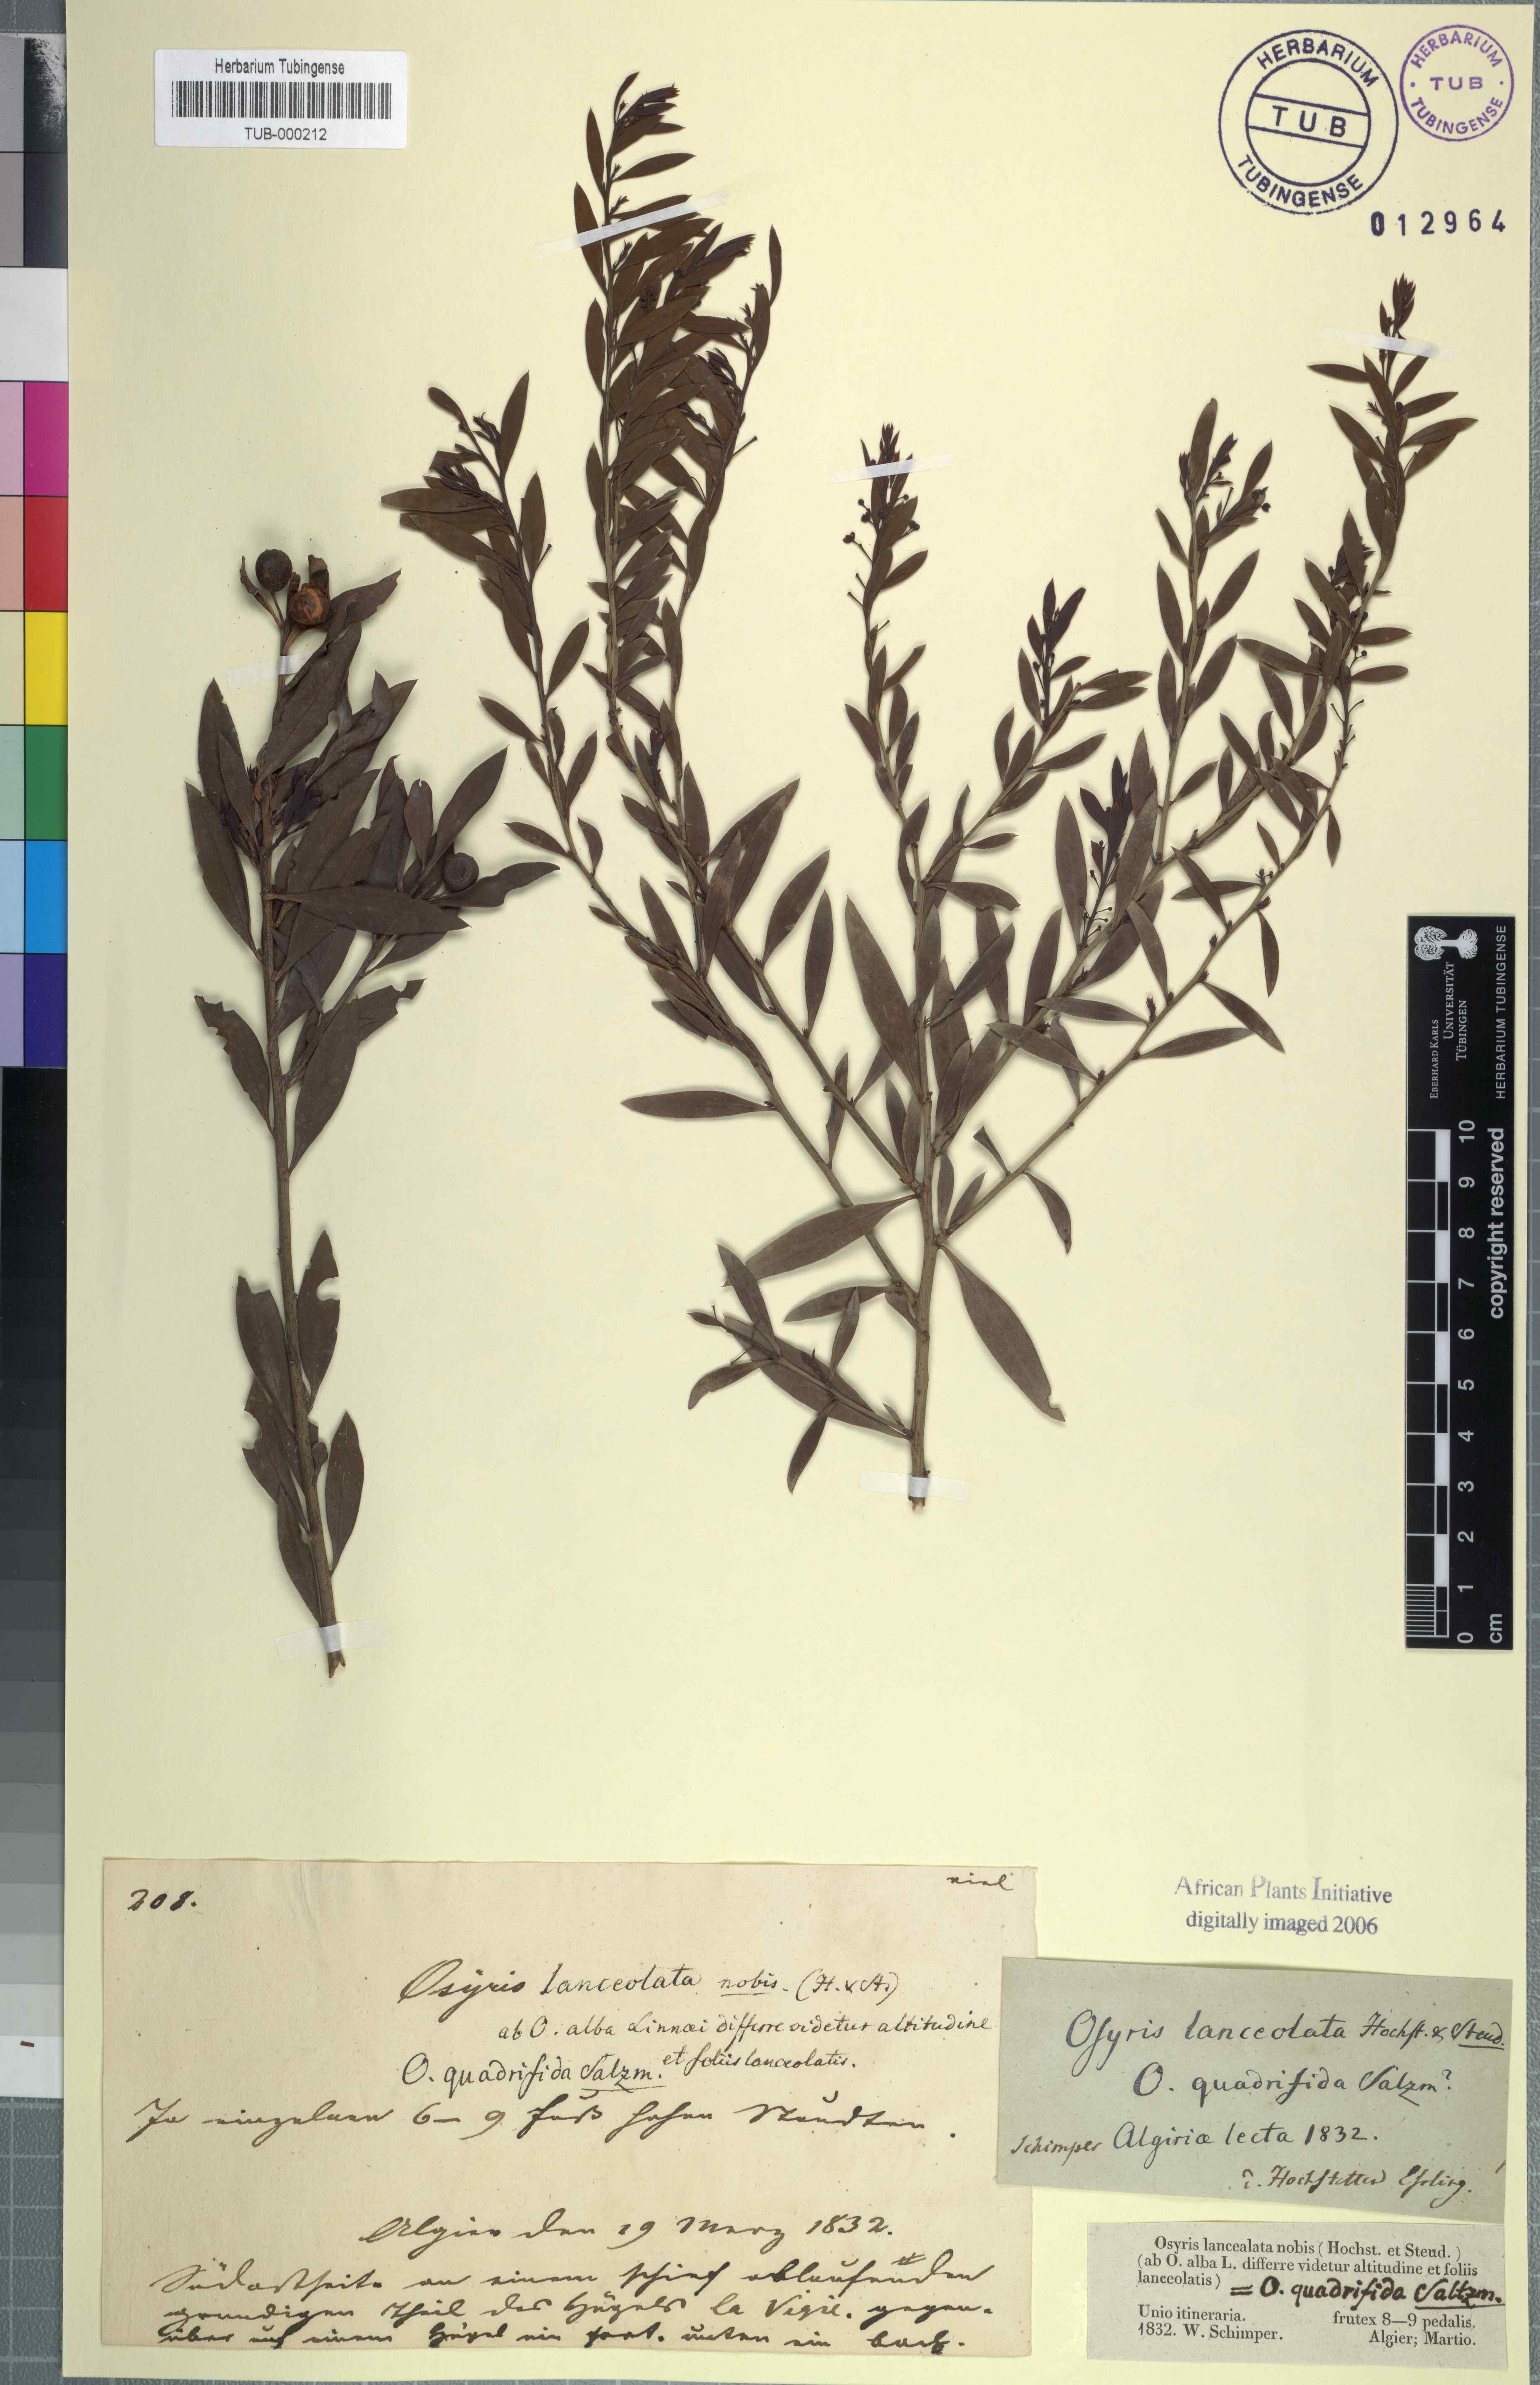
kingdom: Plantae
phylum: Tracheophyta
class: Magnoliopsida
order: Santalales
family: Santalaceae
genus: Osyris
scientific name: Osyris quadripartita
